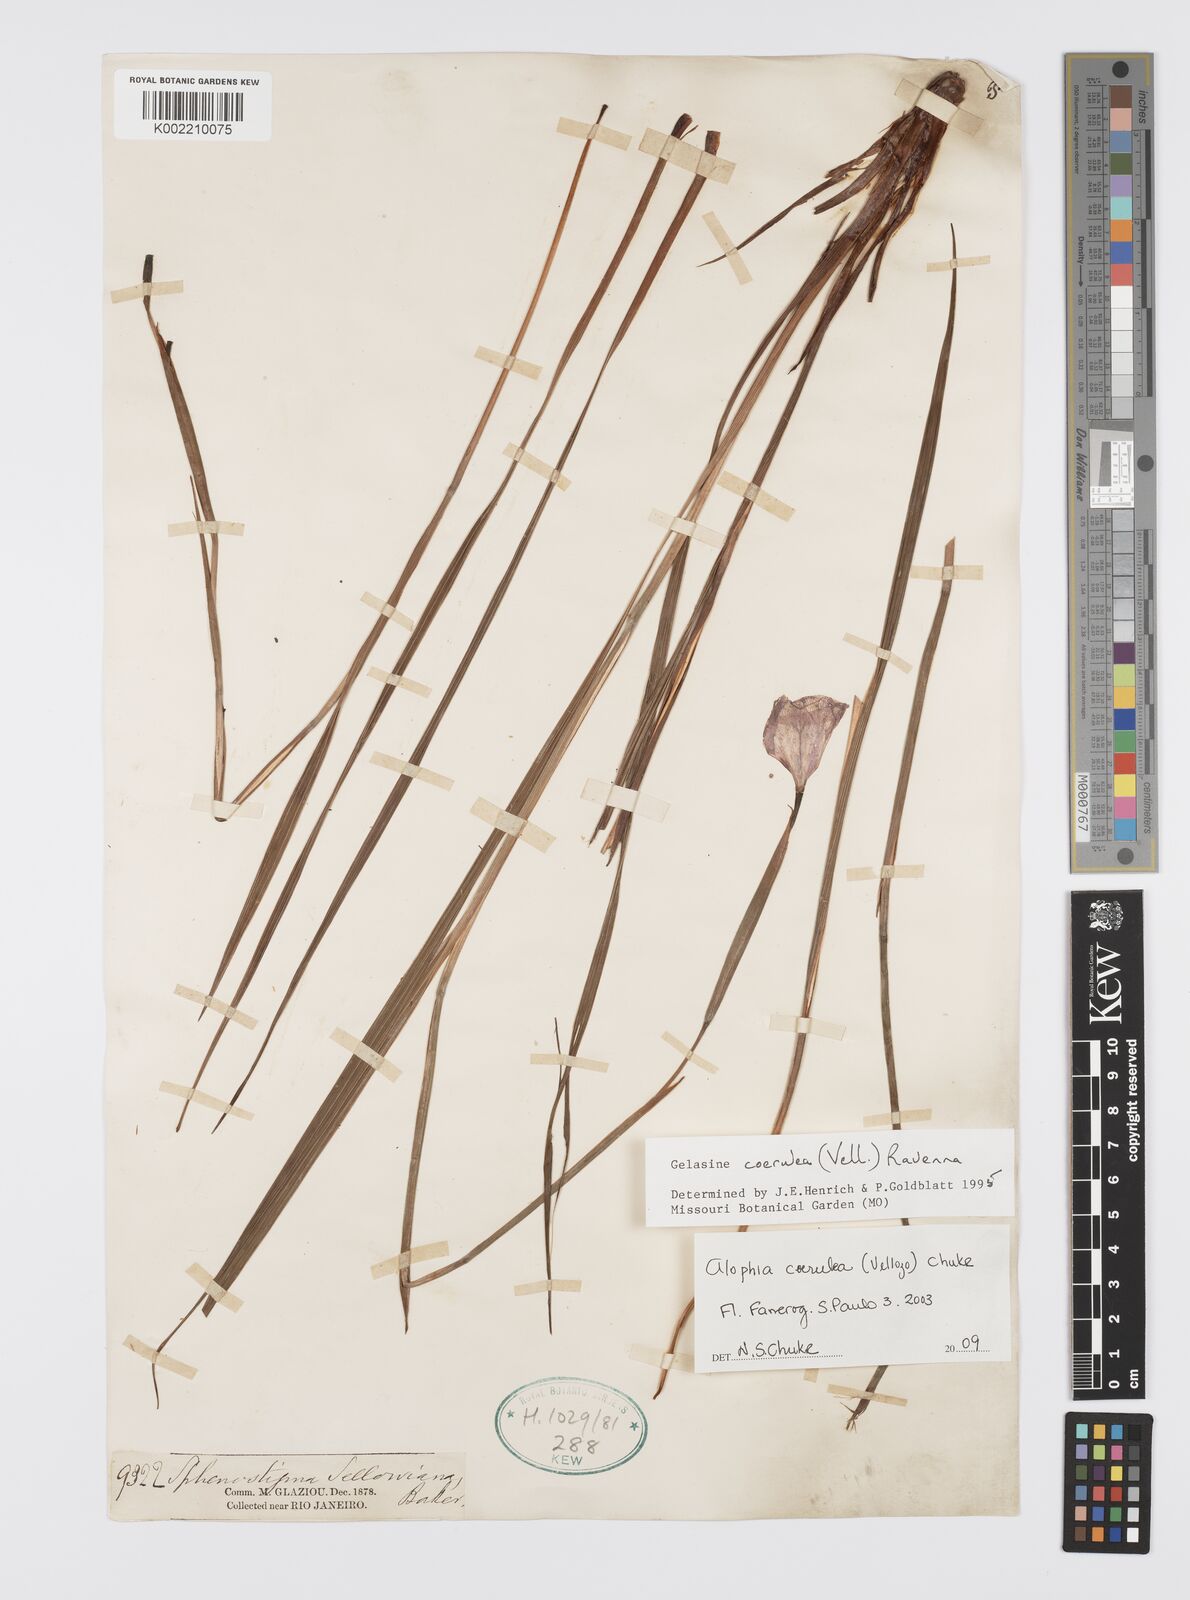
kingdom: Plantae
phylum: Tracheophyta
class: Liliopsida
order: Asparagales
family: Iridaceae
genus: Herbertia
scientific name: Herbertia lahue
